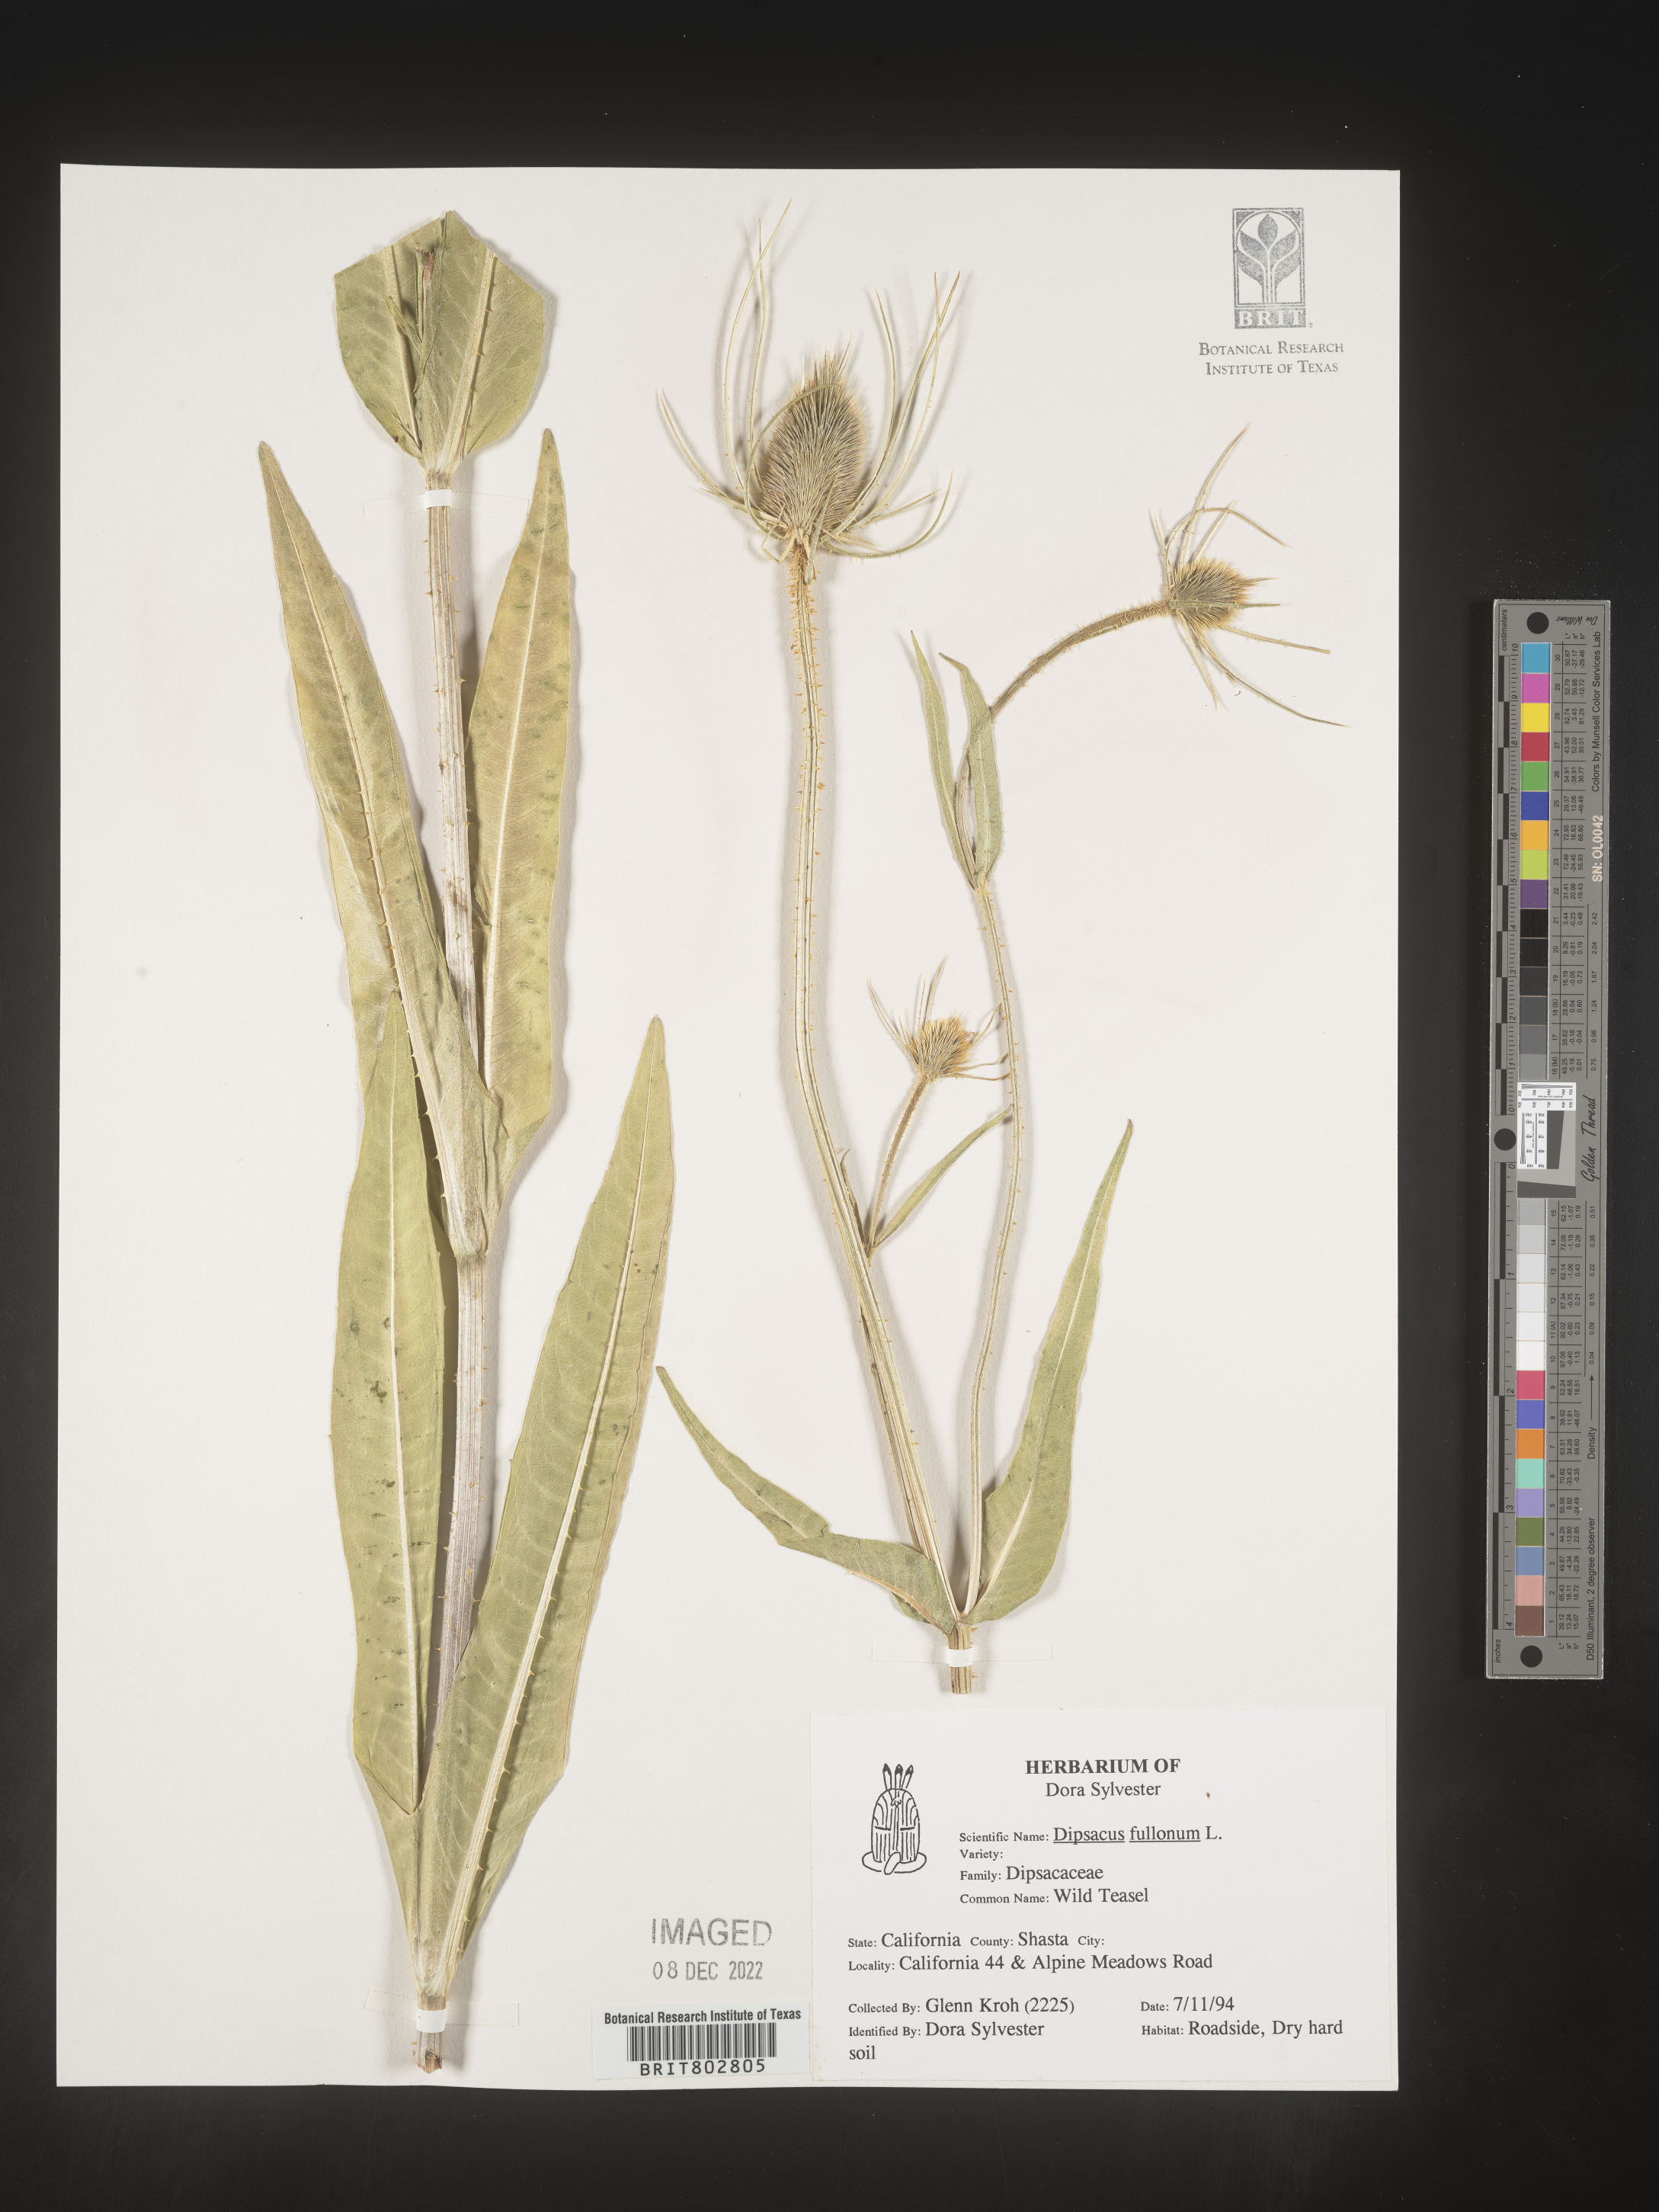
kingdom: Plantae
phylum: Tracheophyta
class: Magnoliopsida
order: Dipsacales
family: Caprifoliaceae
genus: Dipsacus
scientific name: Dipsacus fullonum
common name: Teasel
